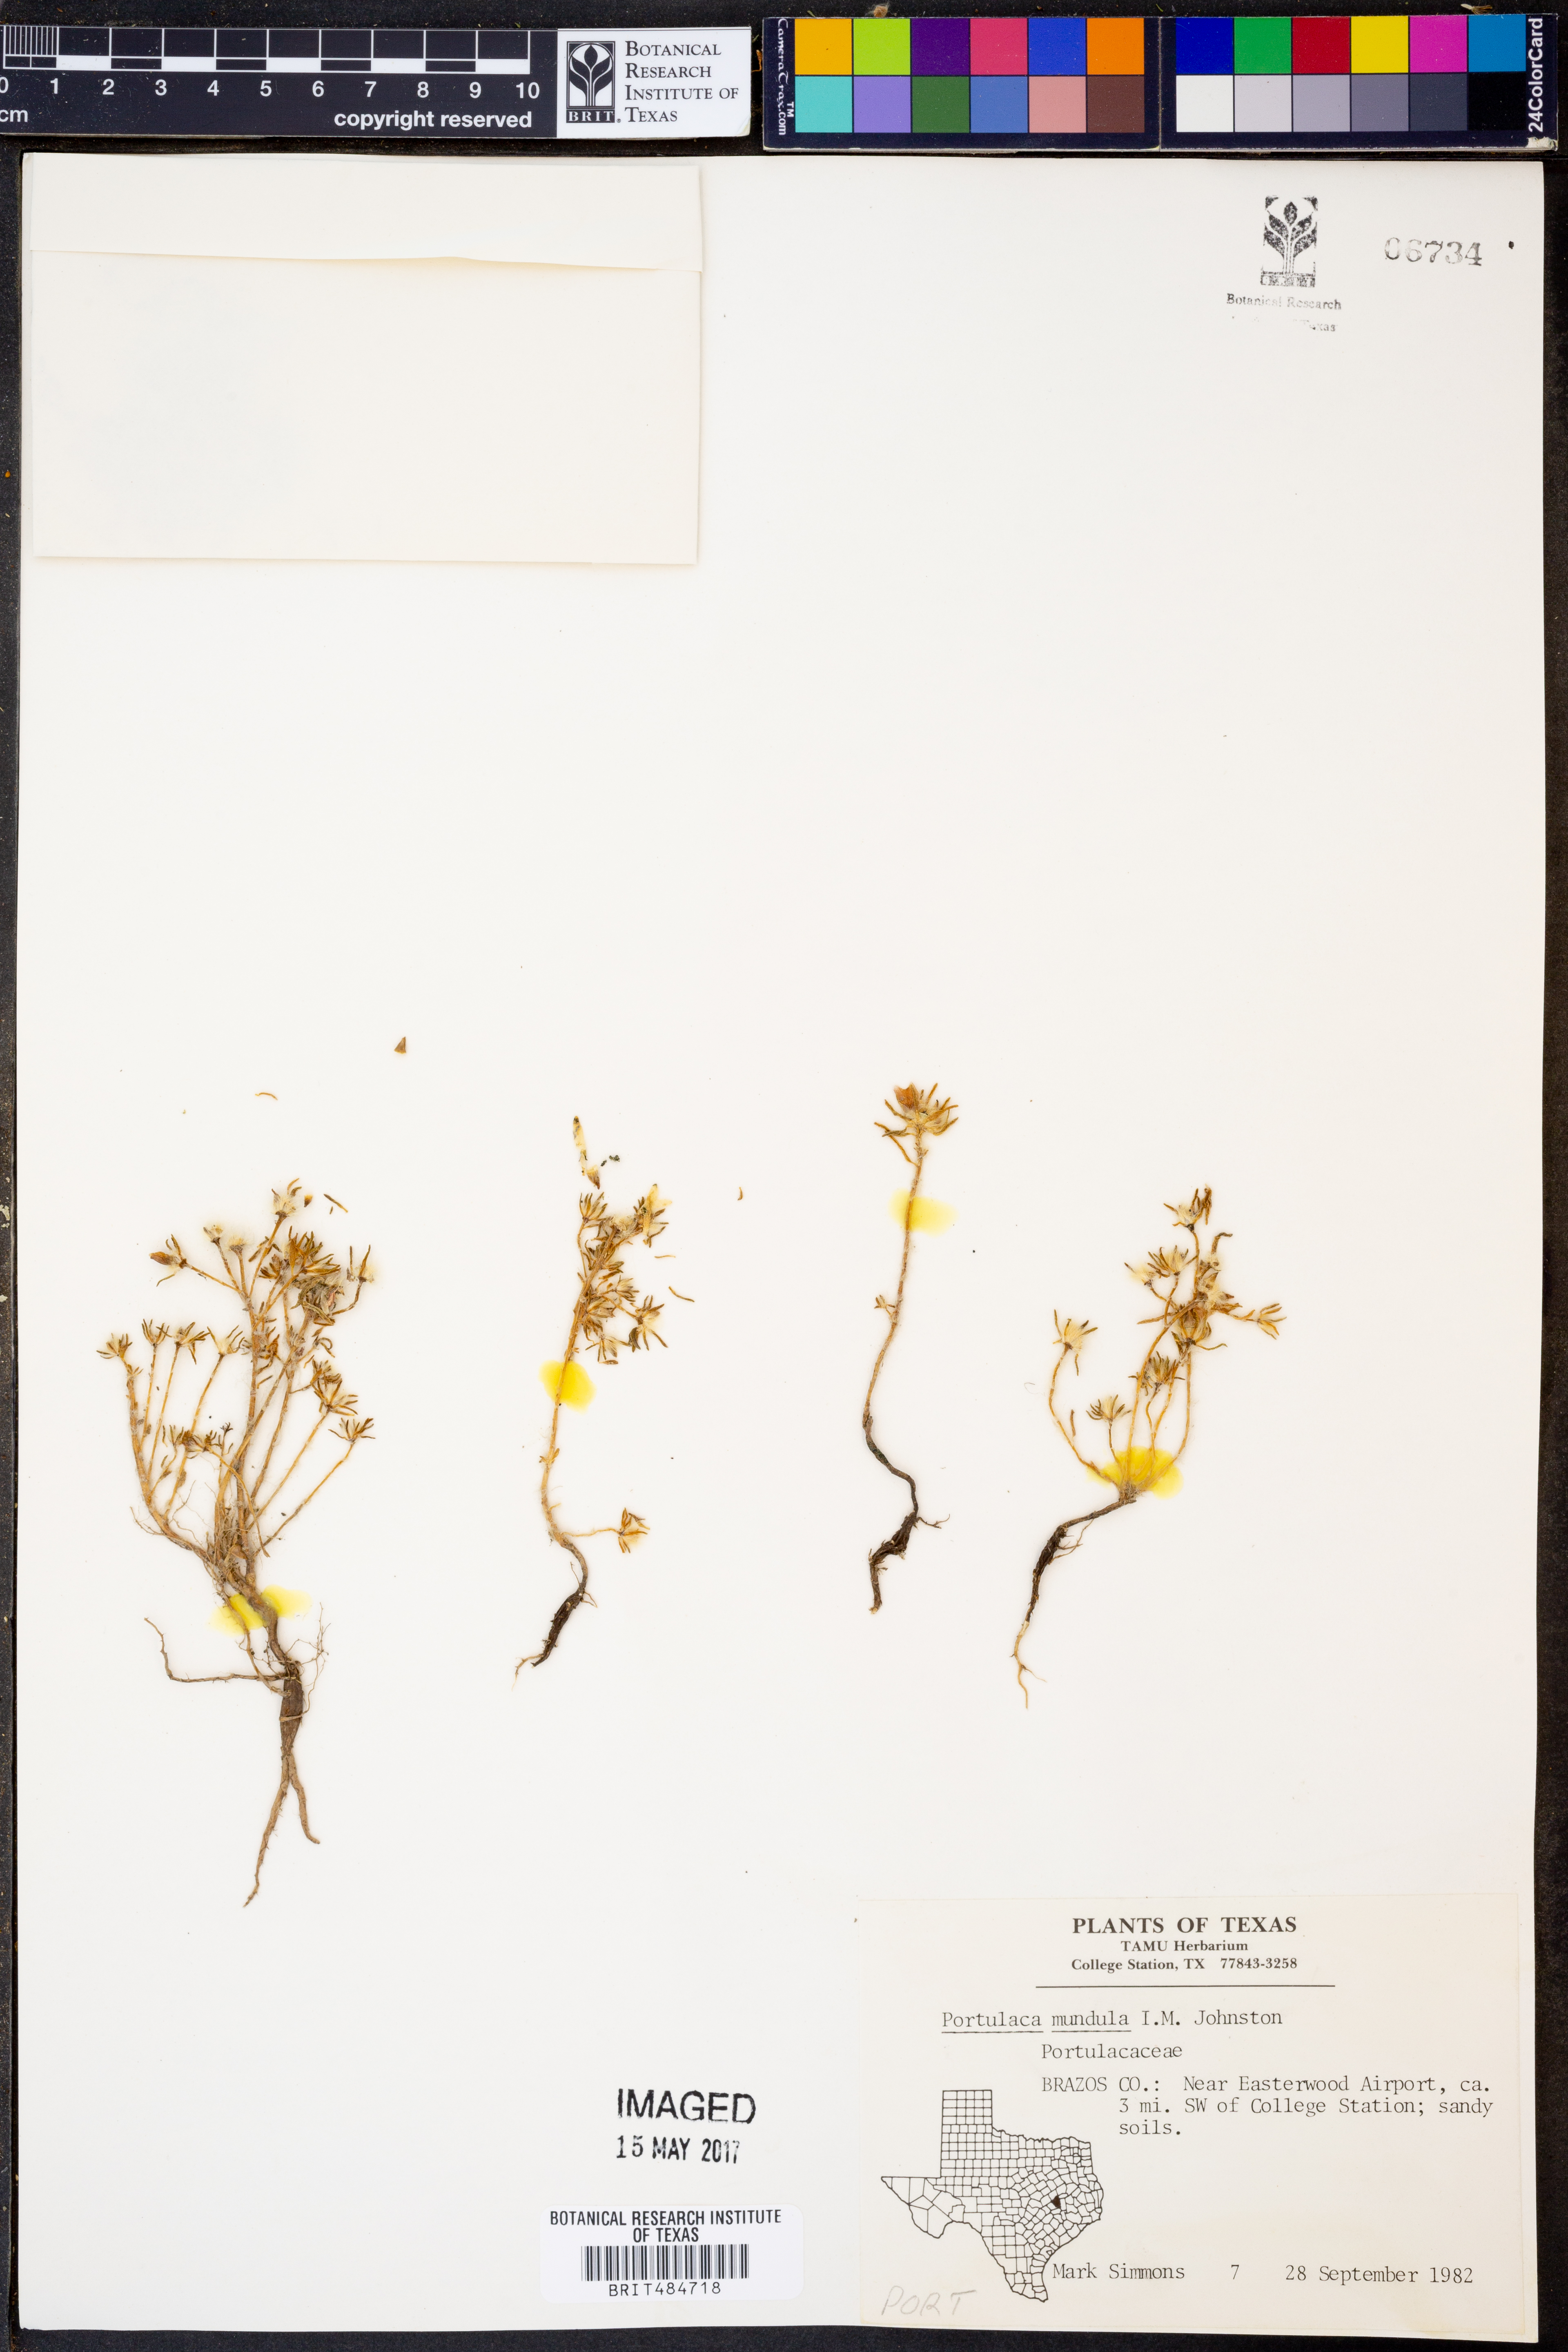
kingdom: Plantae
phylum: Tracheophyta
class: Magnoliopsida
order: Caryophyllales
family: Portulacaceae
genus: Portulaca
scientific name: Portulaca pilosa
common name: Kiss me quick
